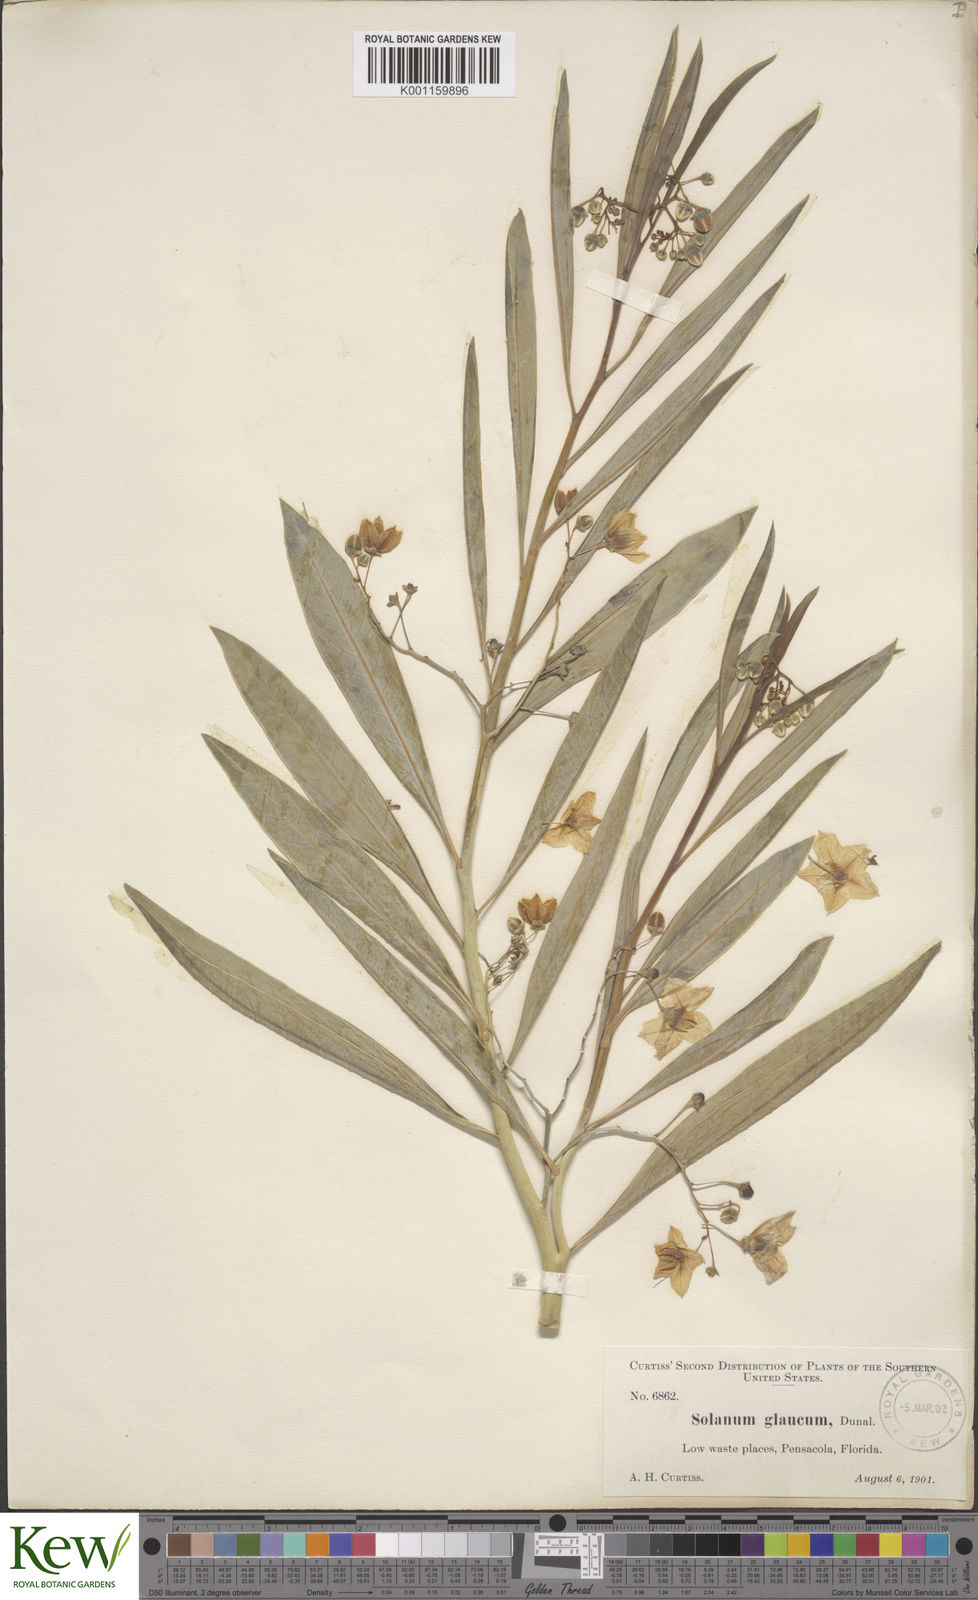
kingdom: Plantae
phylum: Tracheophyta
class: Magnoliopsida
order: Solanales
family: Solanaceae
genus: Solanum
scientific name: Solanum glaucophyllum
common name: Waxyleaf nightshade
